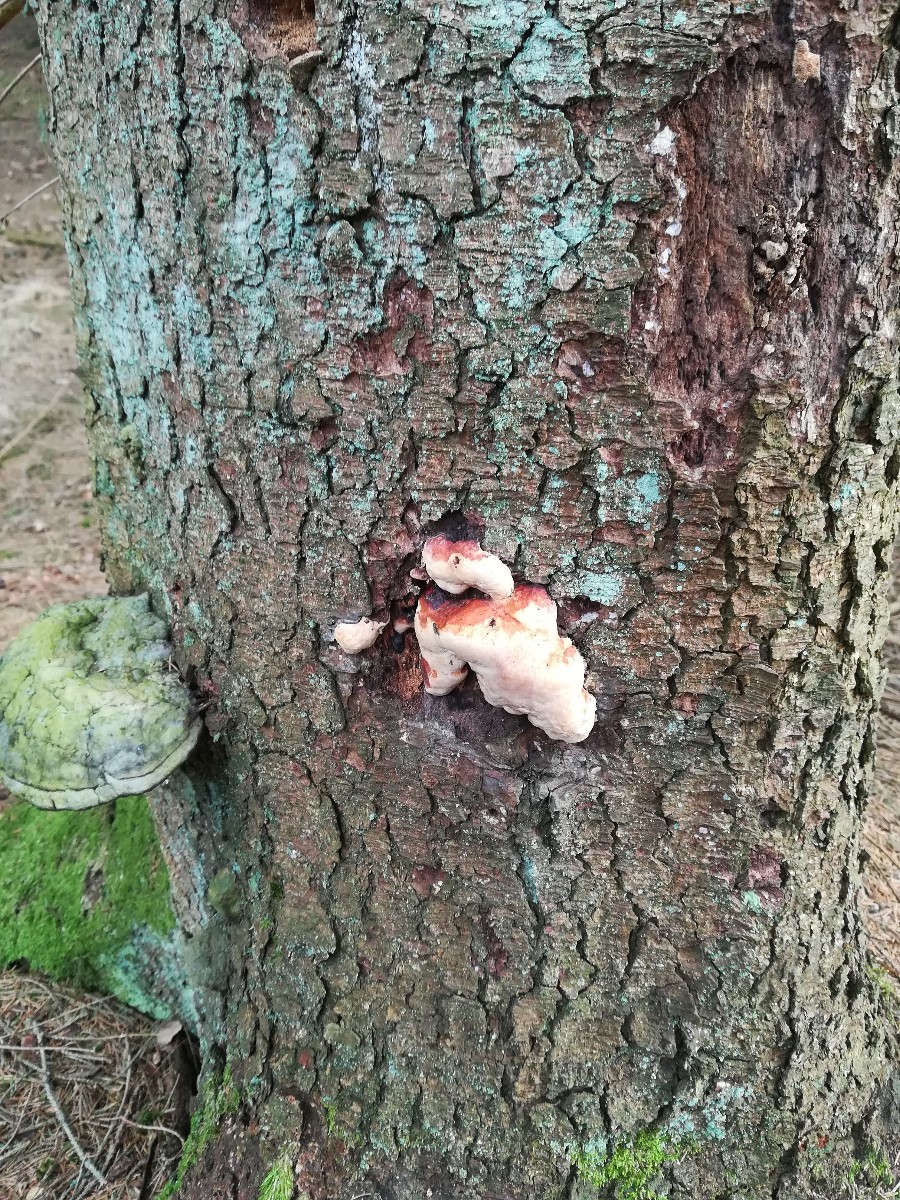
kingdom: Fungi
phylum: Basidiomycota
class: Agaricomycetes
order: Polyporales
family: Fomitopsidaceae
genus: Fomitopsis
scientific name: Fomitopsis pinicola
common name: randbæltet hovporesvamp
